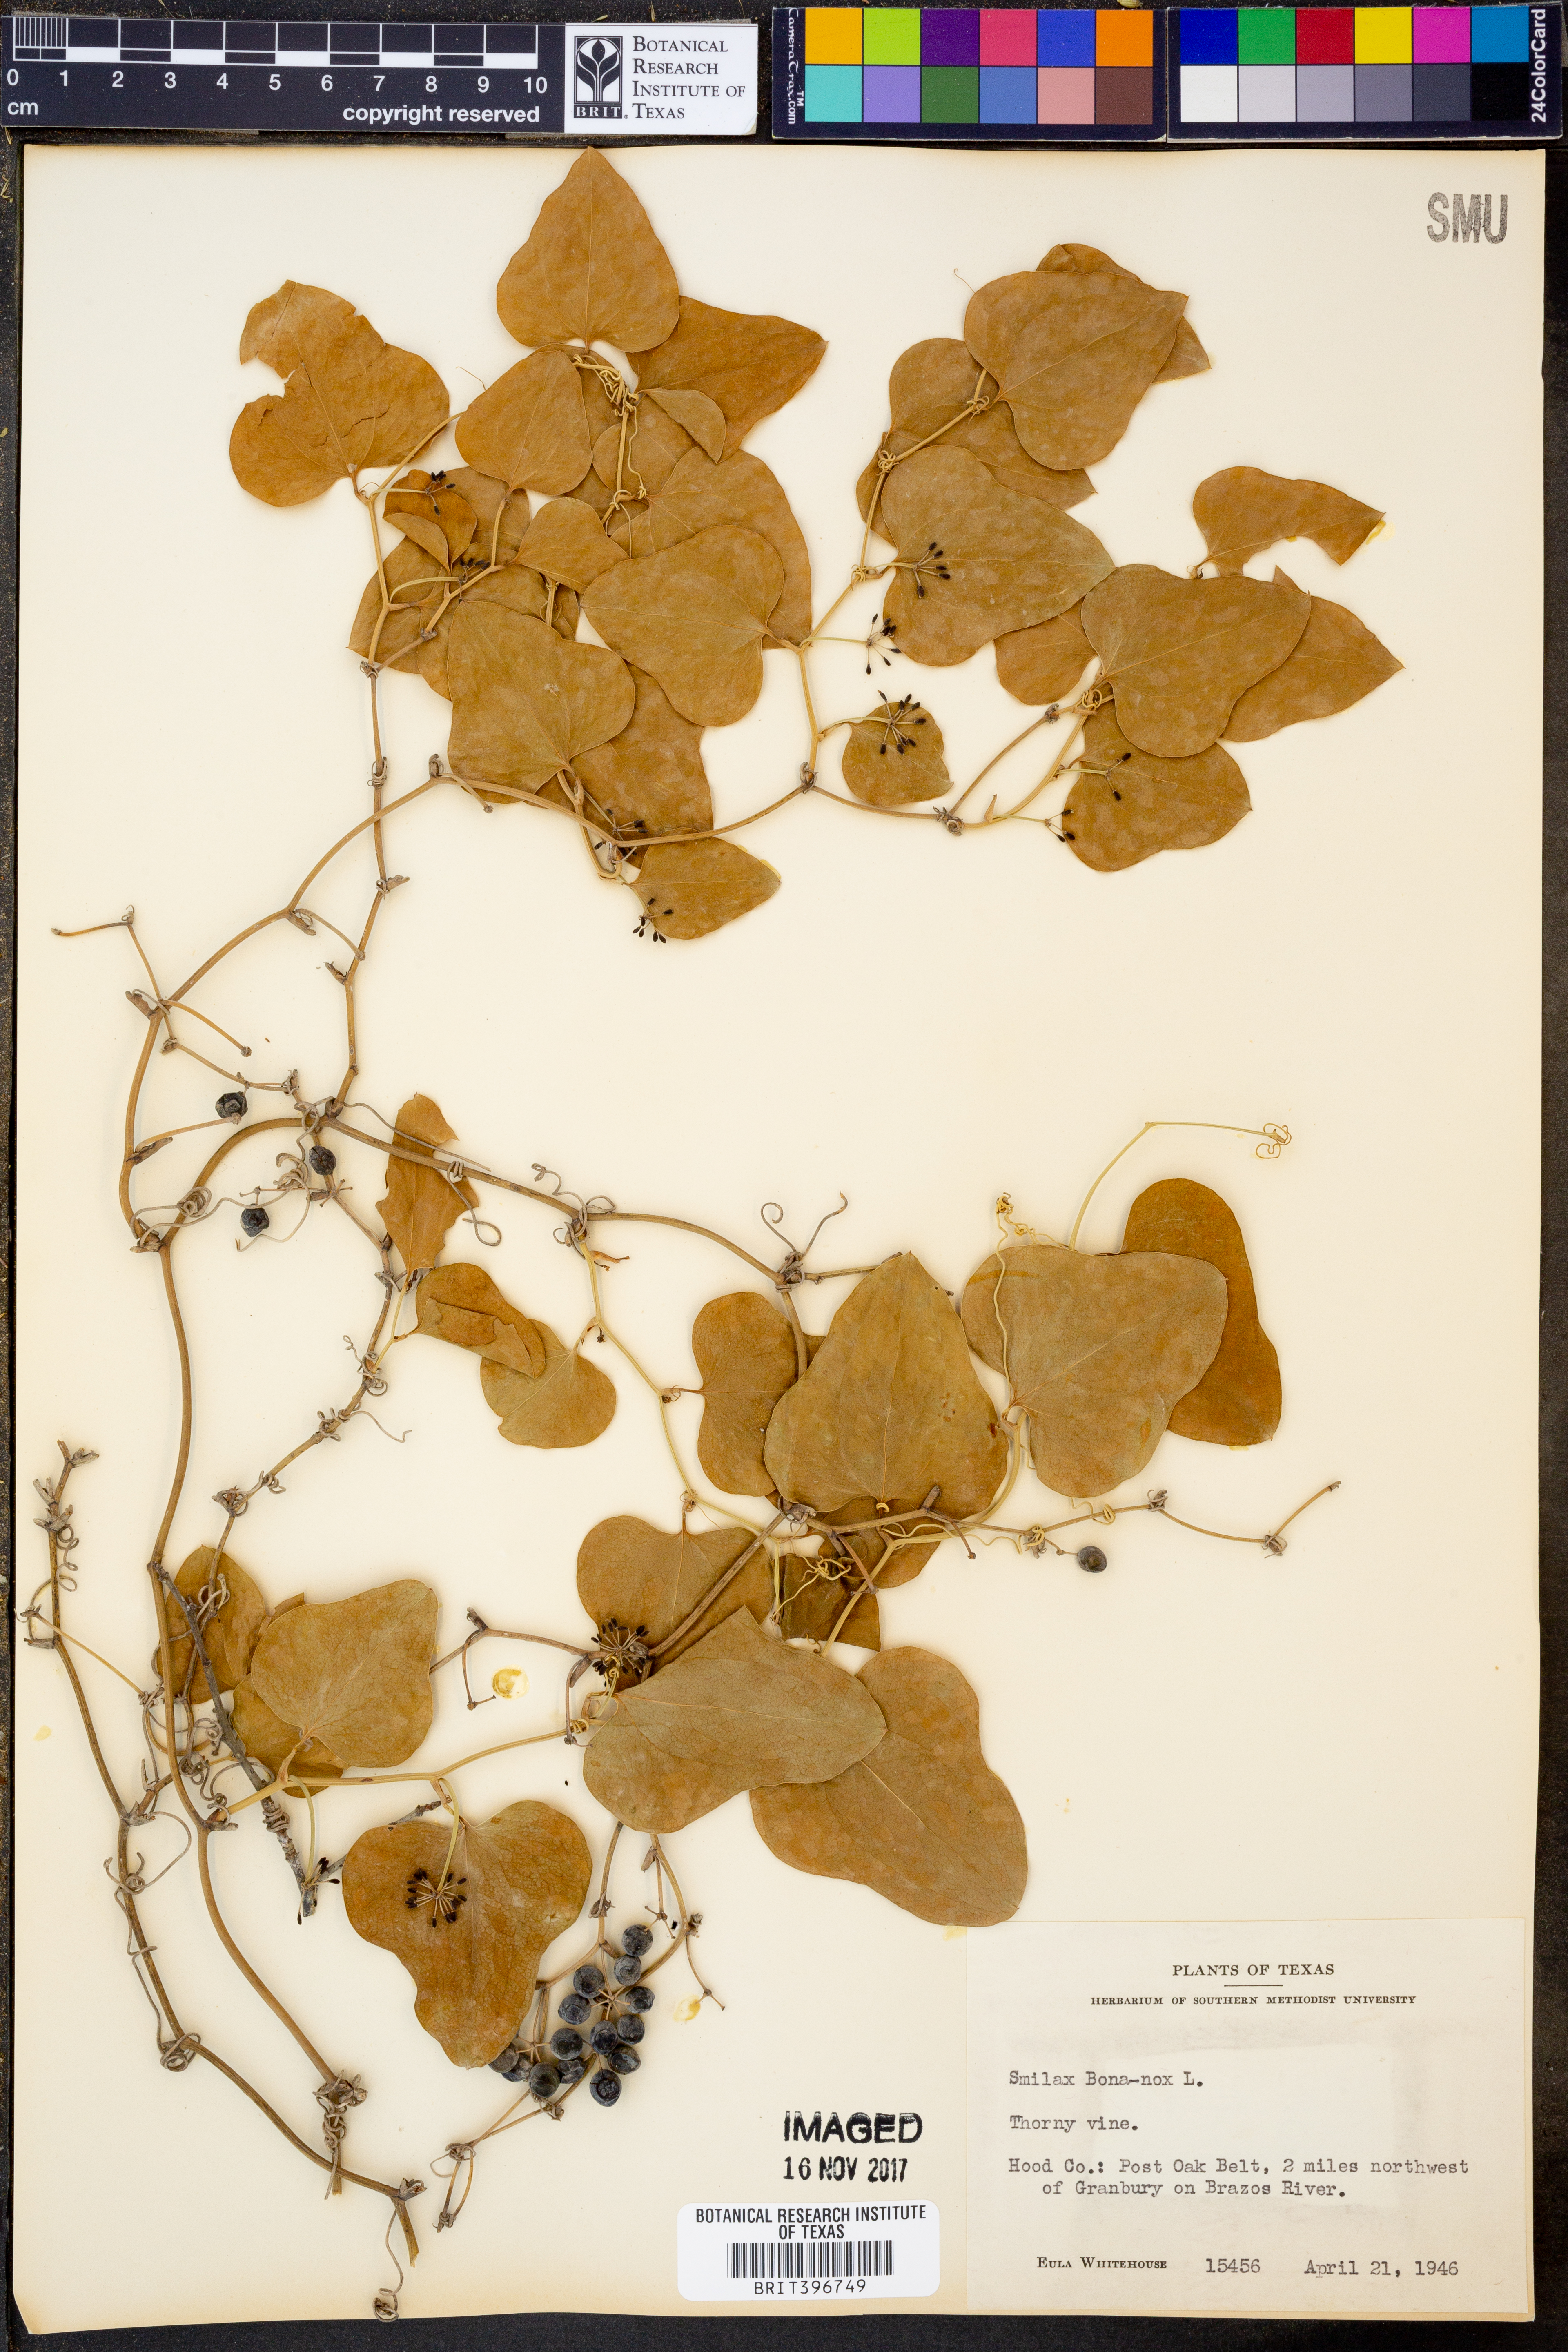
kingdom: Plantae
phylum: Tracheophyta
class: Liliopsida
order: Liliales
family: Smilacaceae
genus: Smilax
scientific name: Smilax bona-nox
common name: Catbrier
